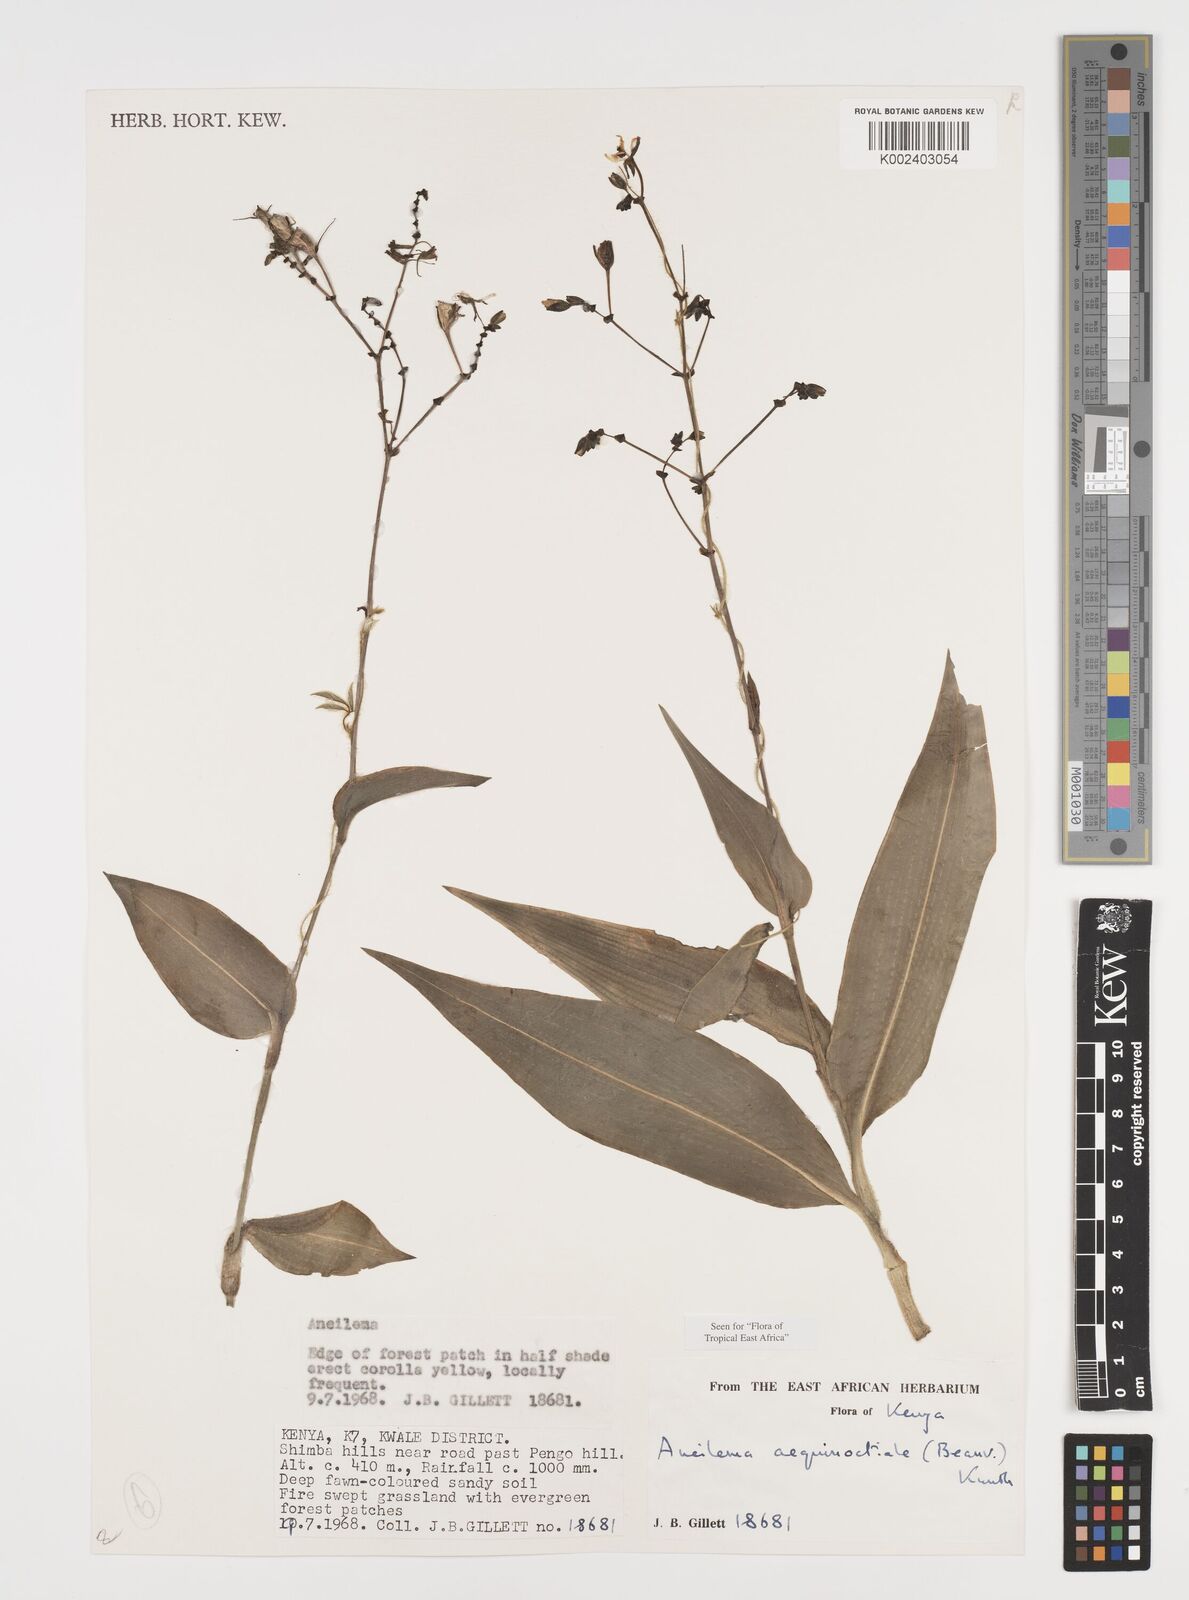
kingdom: Plantae
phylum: Tracheophyta
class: Liliopsida
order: Commelinales
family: Commelinaceae
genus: Aneilema
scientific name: Aneilema aequinoctiale
